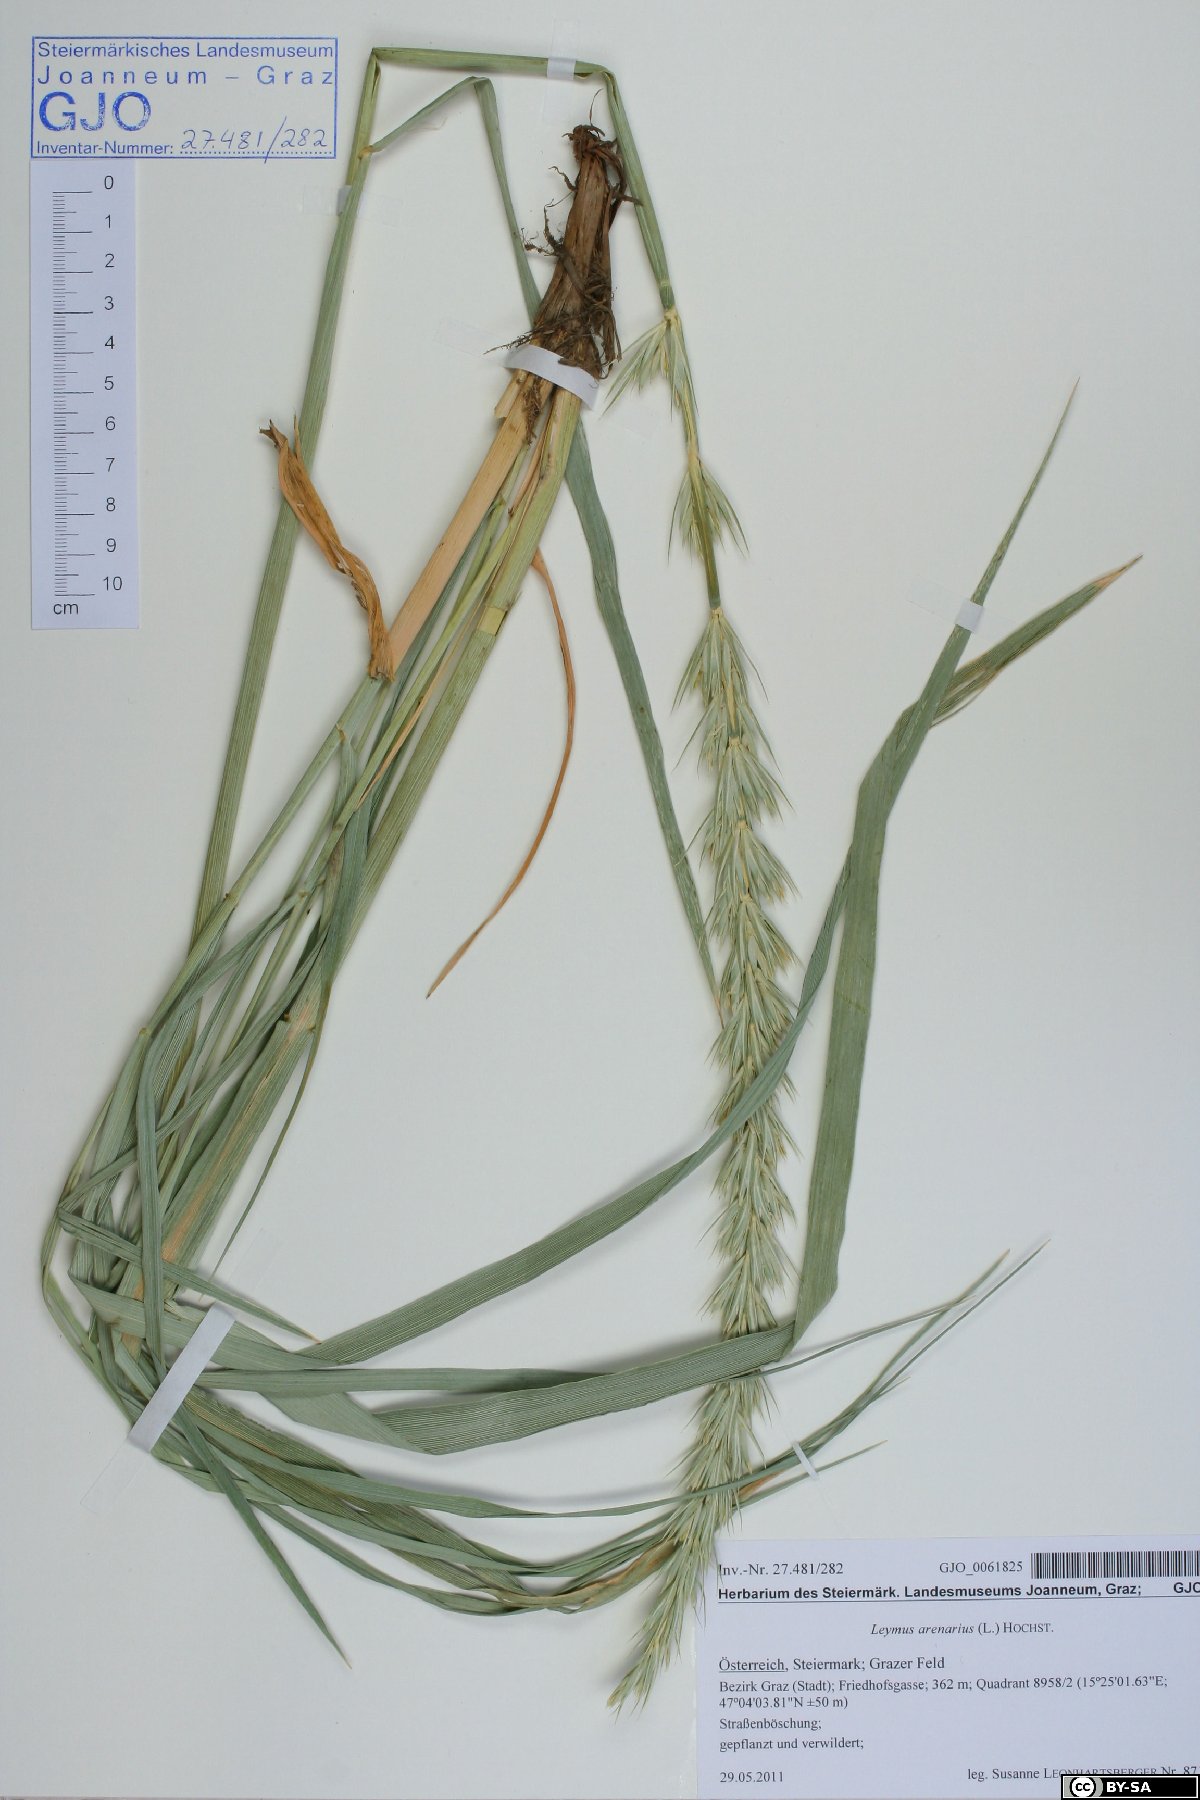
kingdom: Plantae
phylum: Tracheophyta
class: Liliopsida
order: Poales
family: Poaceae
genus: Leymus
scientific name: Leymus arenarius
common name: Lyme-grass
